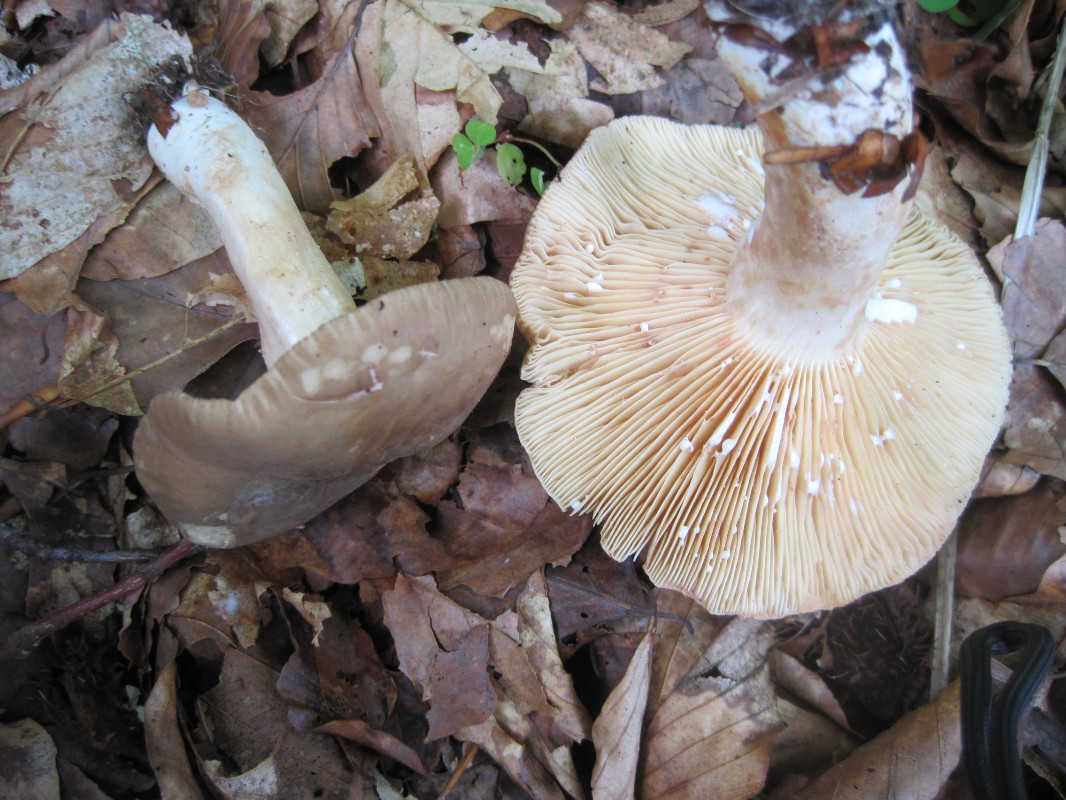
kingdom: Fungi
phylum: Basidiomycota
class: Agaricomycetes
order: Russulales
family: Russulaceae
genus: Lactarius
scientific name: Lactarius pterosporus
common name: vingesporet mælkehat
